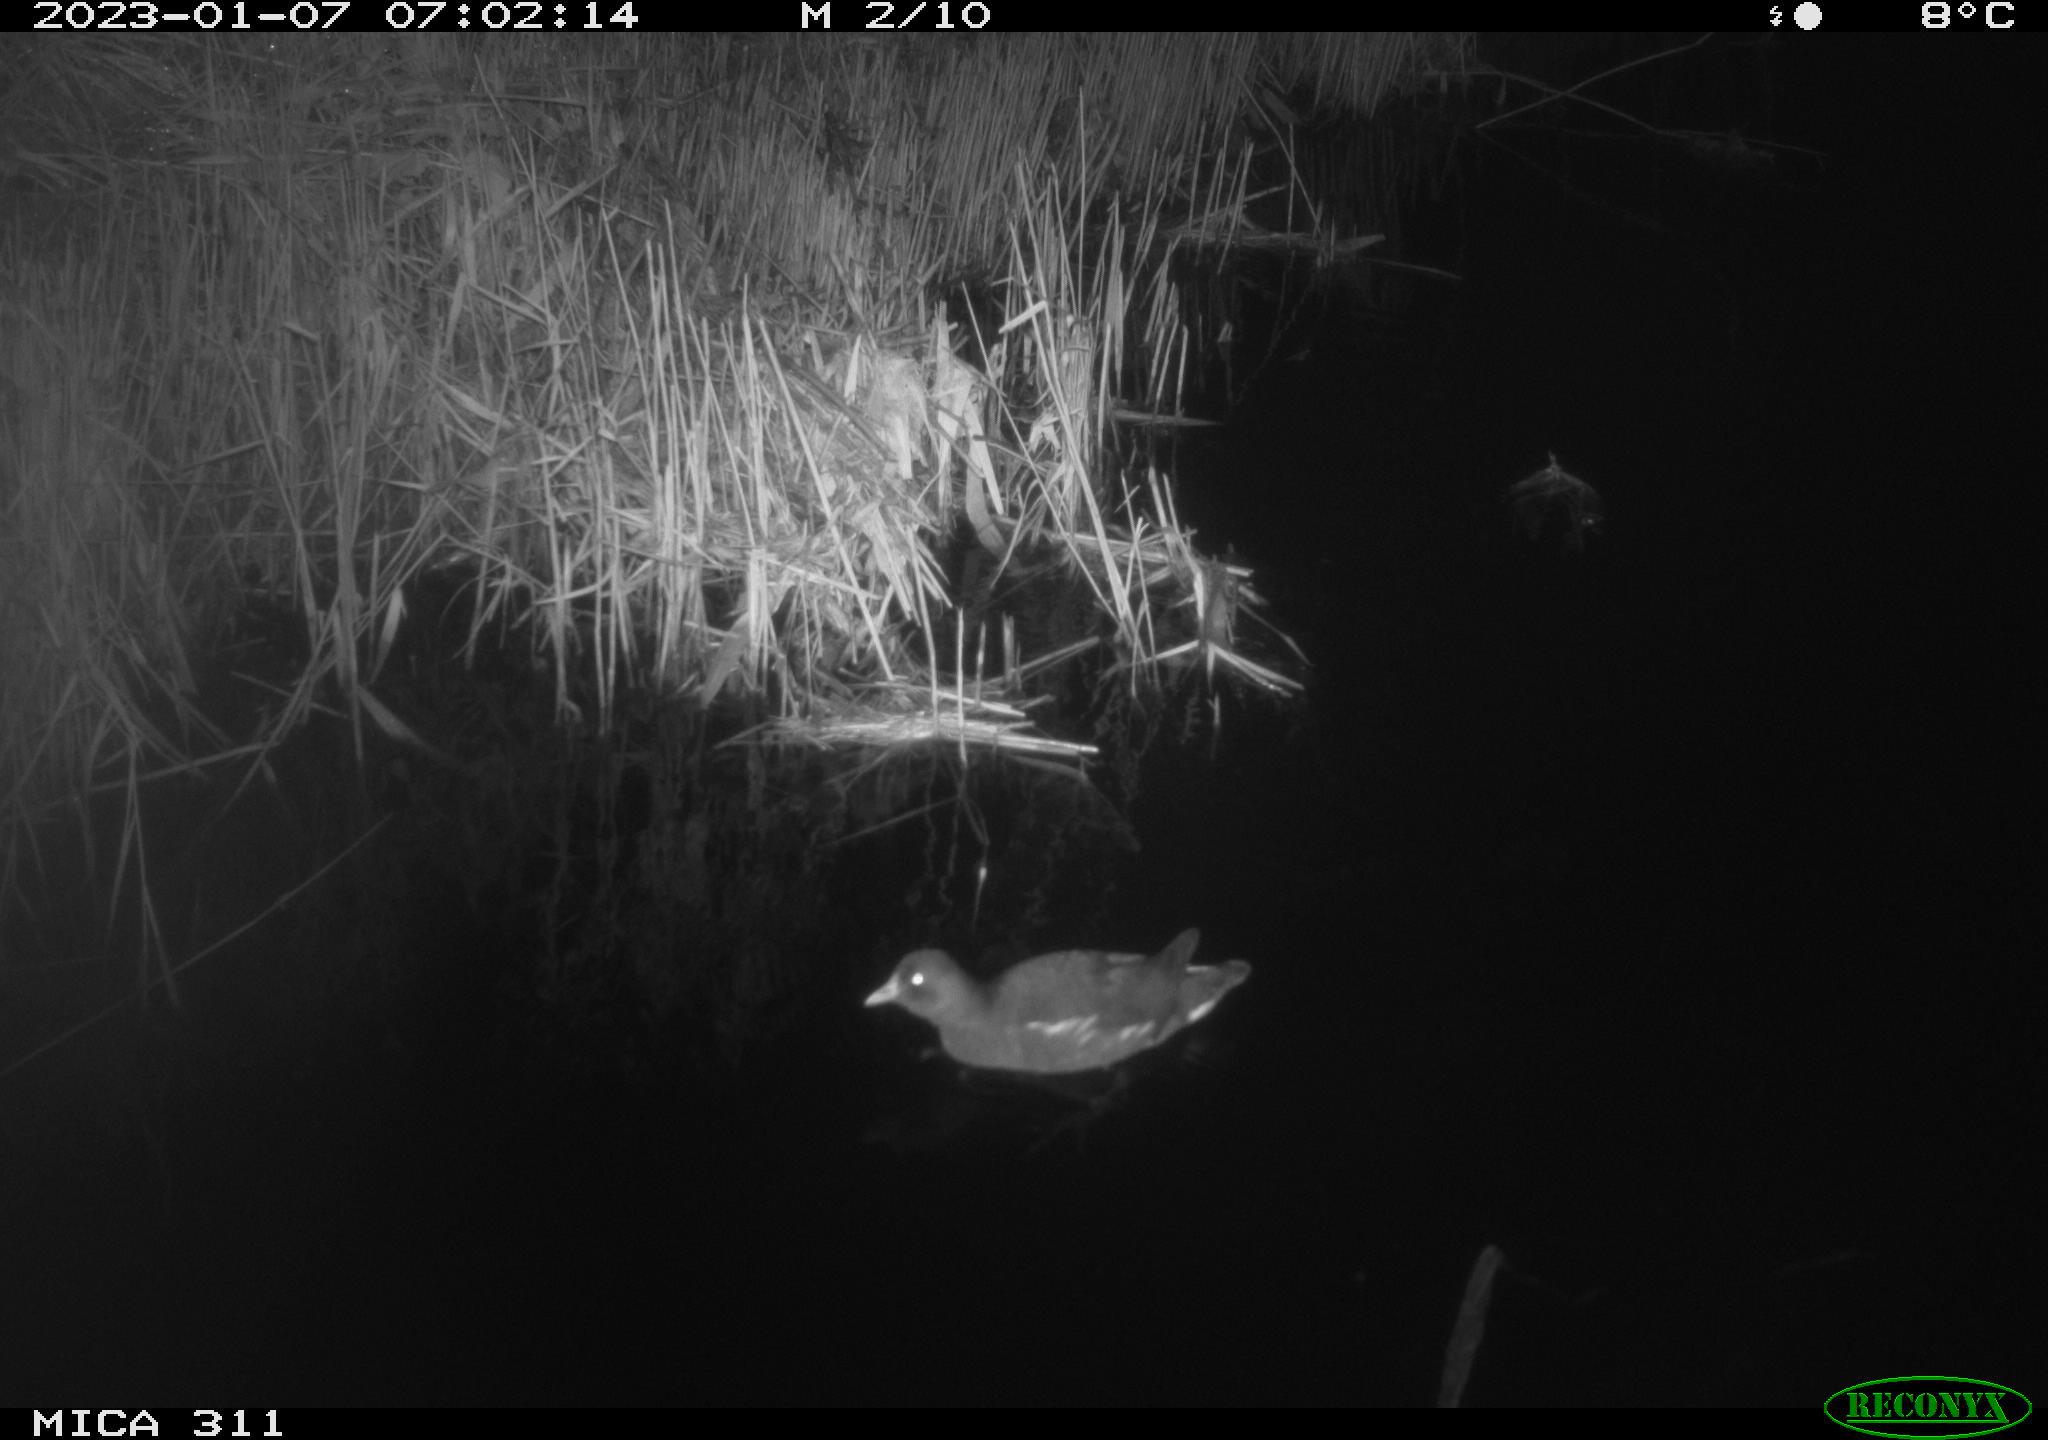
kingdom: Animalia
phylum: Chordata
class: Aves
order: Gruiformes
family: Rallidae
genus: Gallinula
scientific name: Gallinula chloropus
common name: Common moorhen
